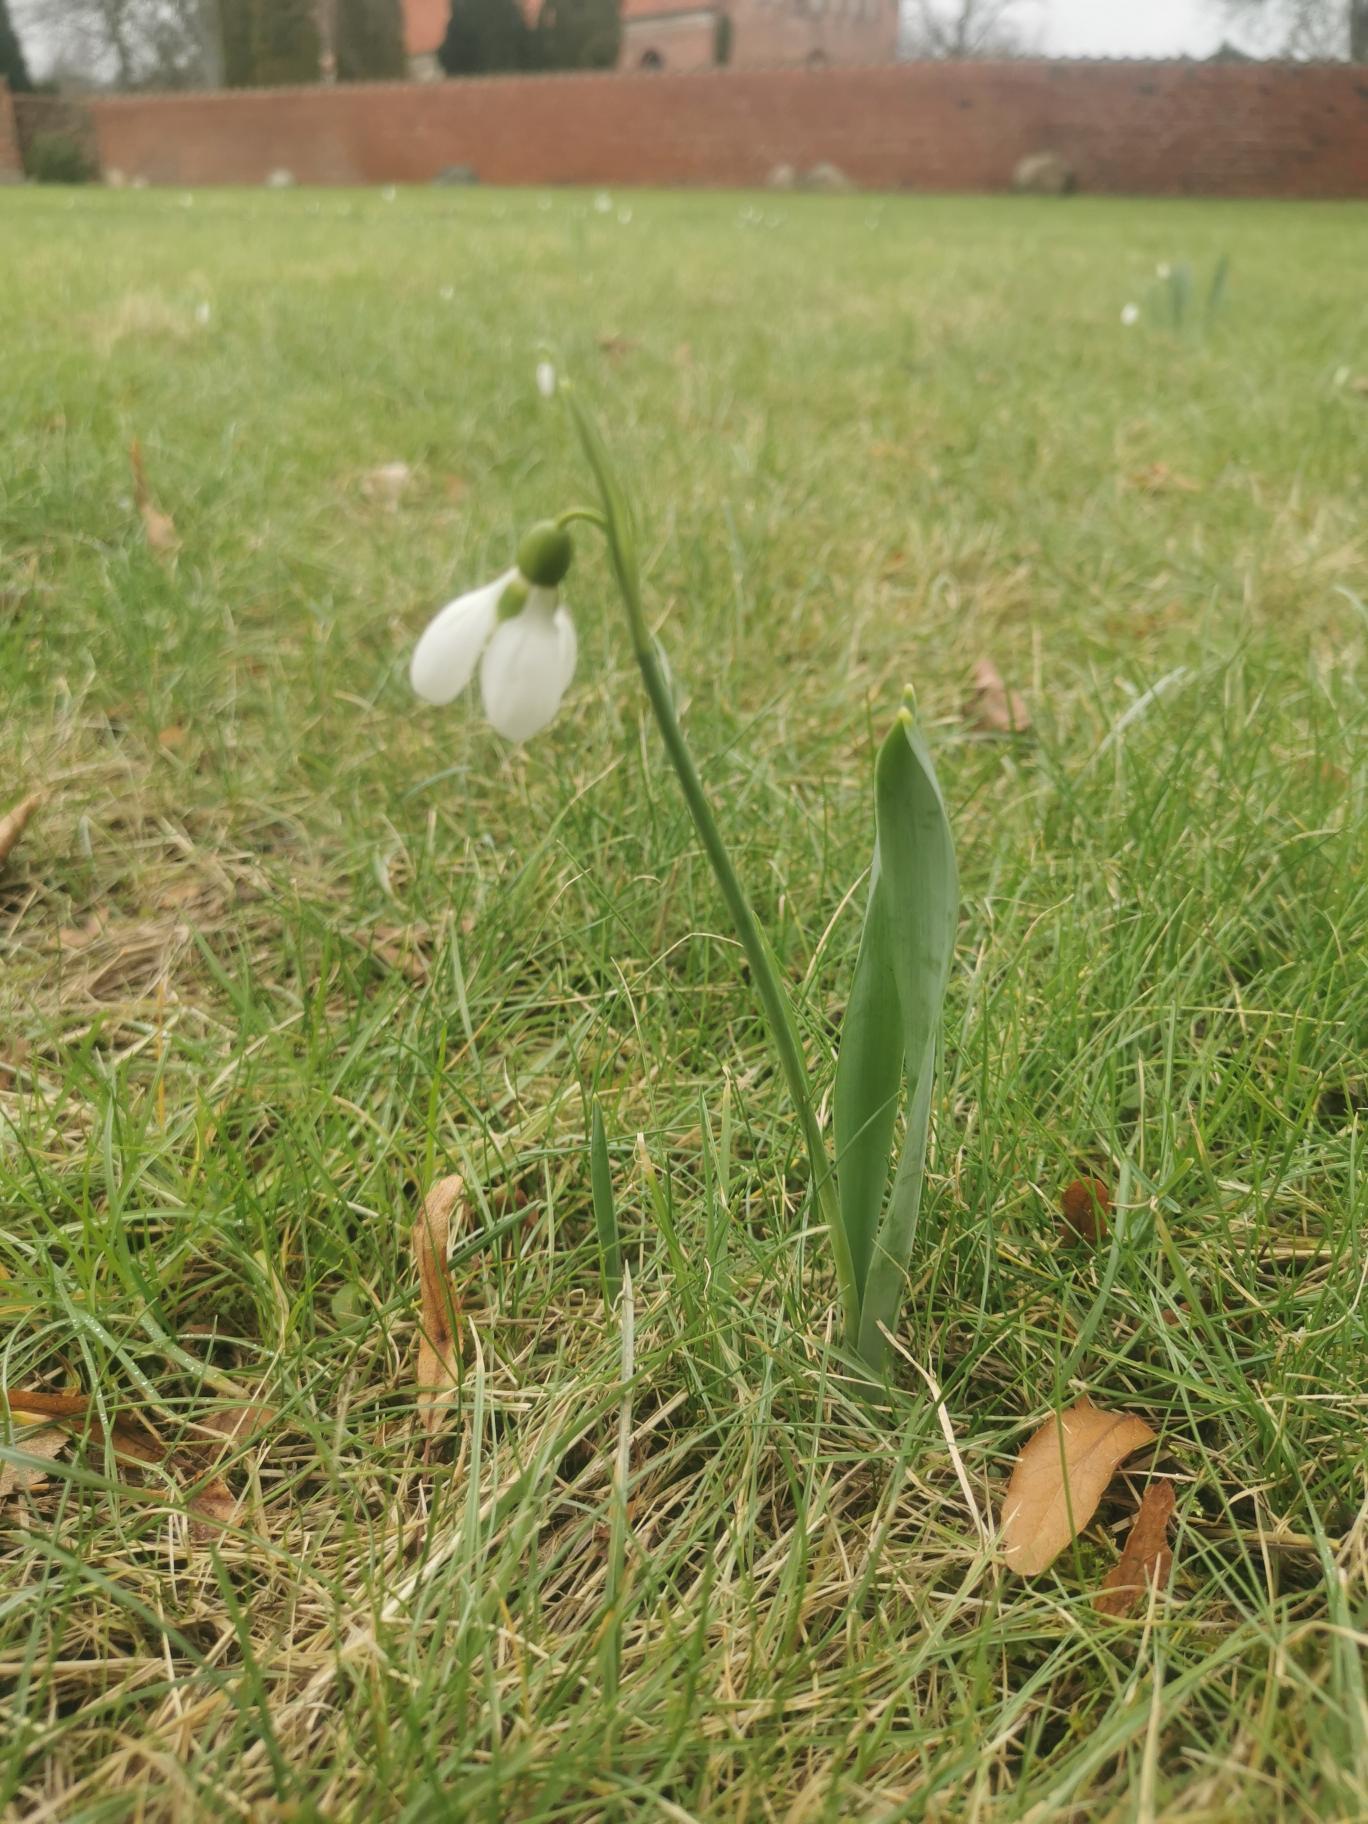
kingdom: Plantae
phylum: Tracheophyta
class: Liliopsida
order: Asparagales
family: Amaryllidaceae
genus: Galanthus
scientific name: Galanthus nivalis
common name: Vintergæk
